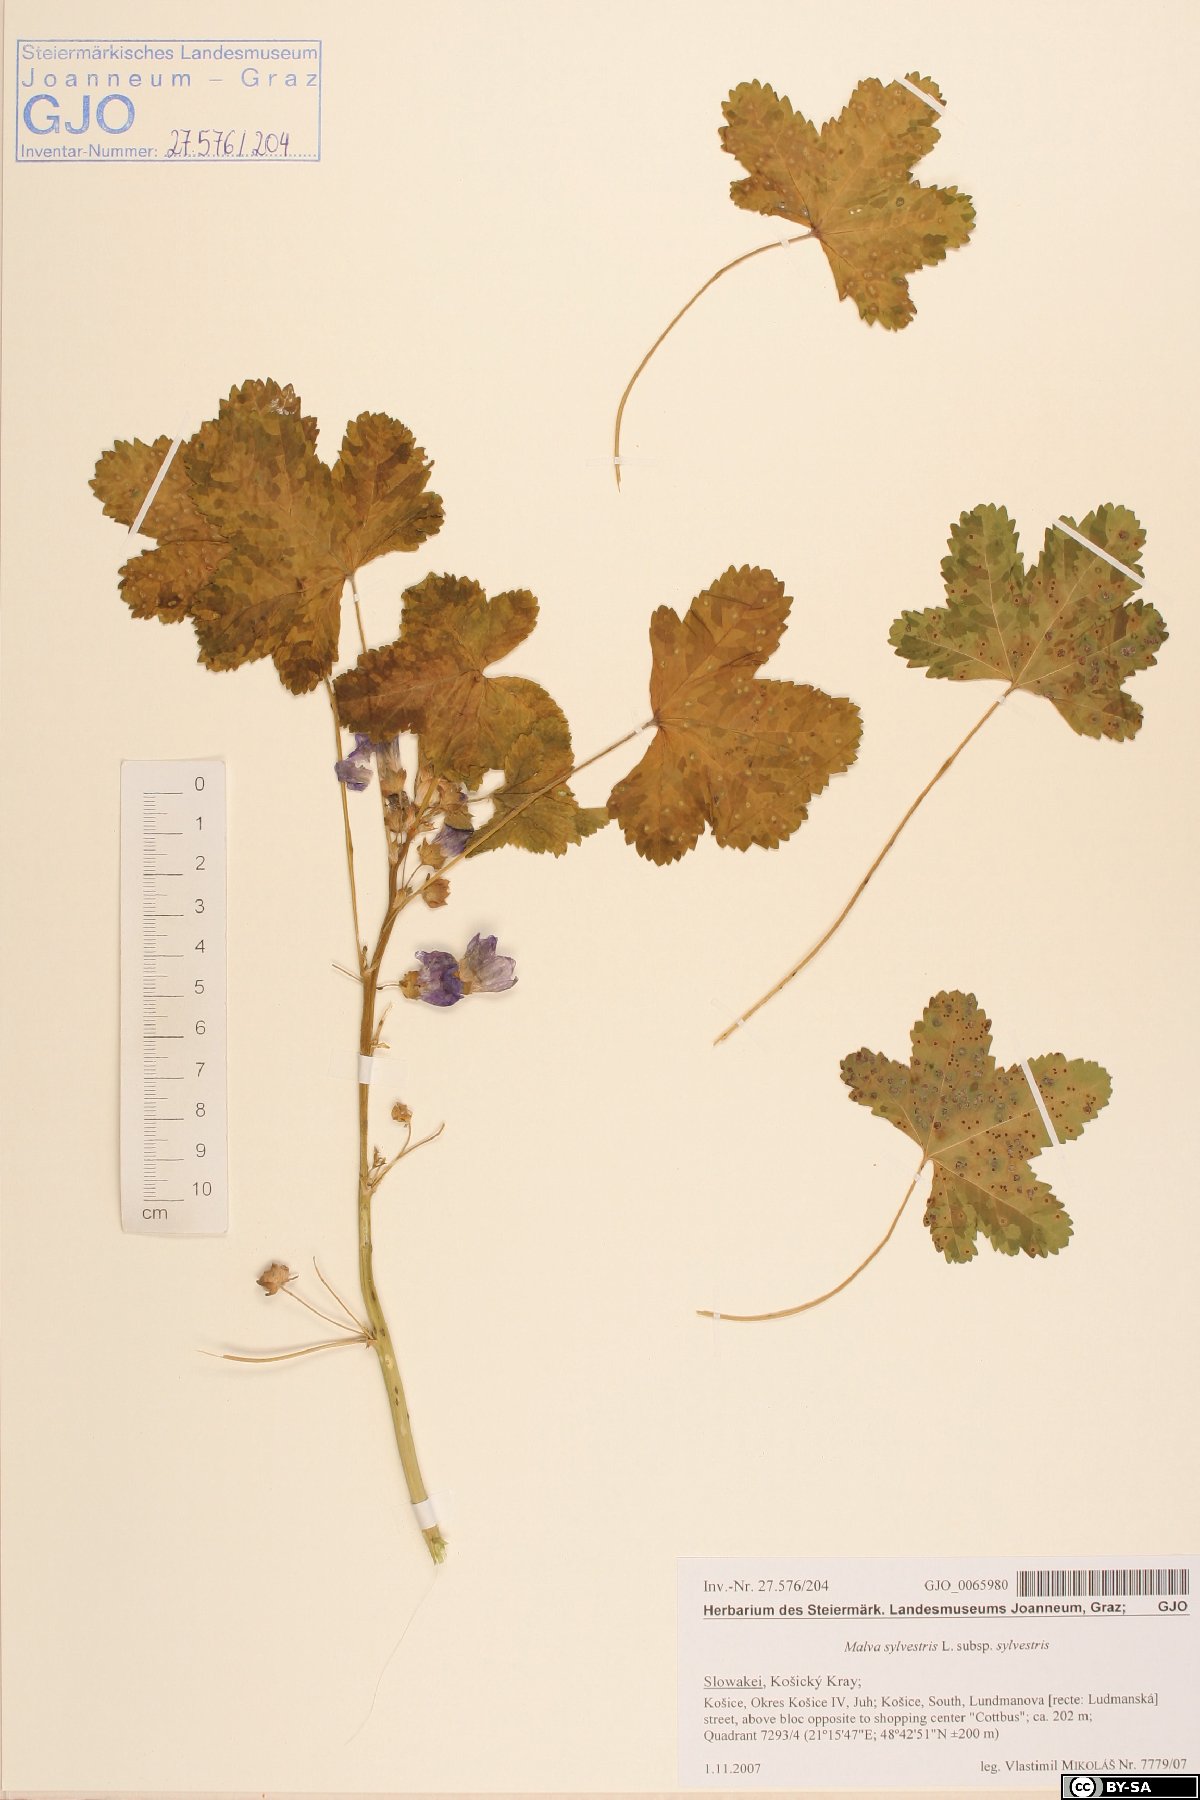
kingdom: Plantae
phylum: Tracheophyta
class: Magnoliopsida
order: Malvales
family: Malvaceae
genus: Malva
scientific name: Malva sylvestris
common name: Common mallow
